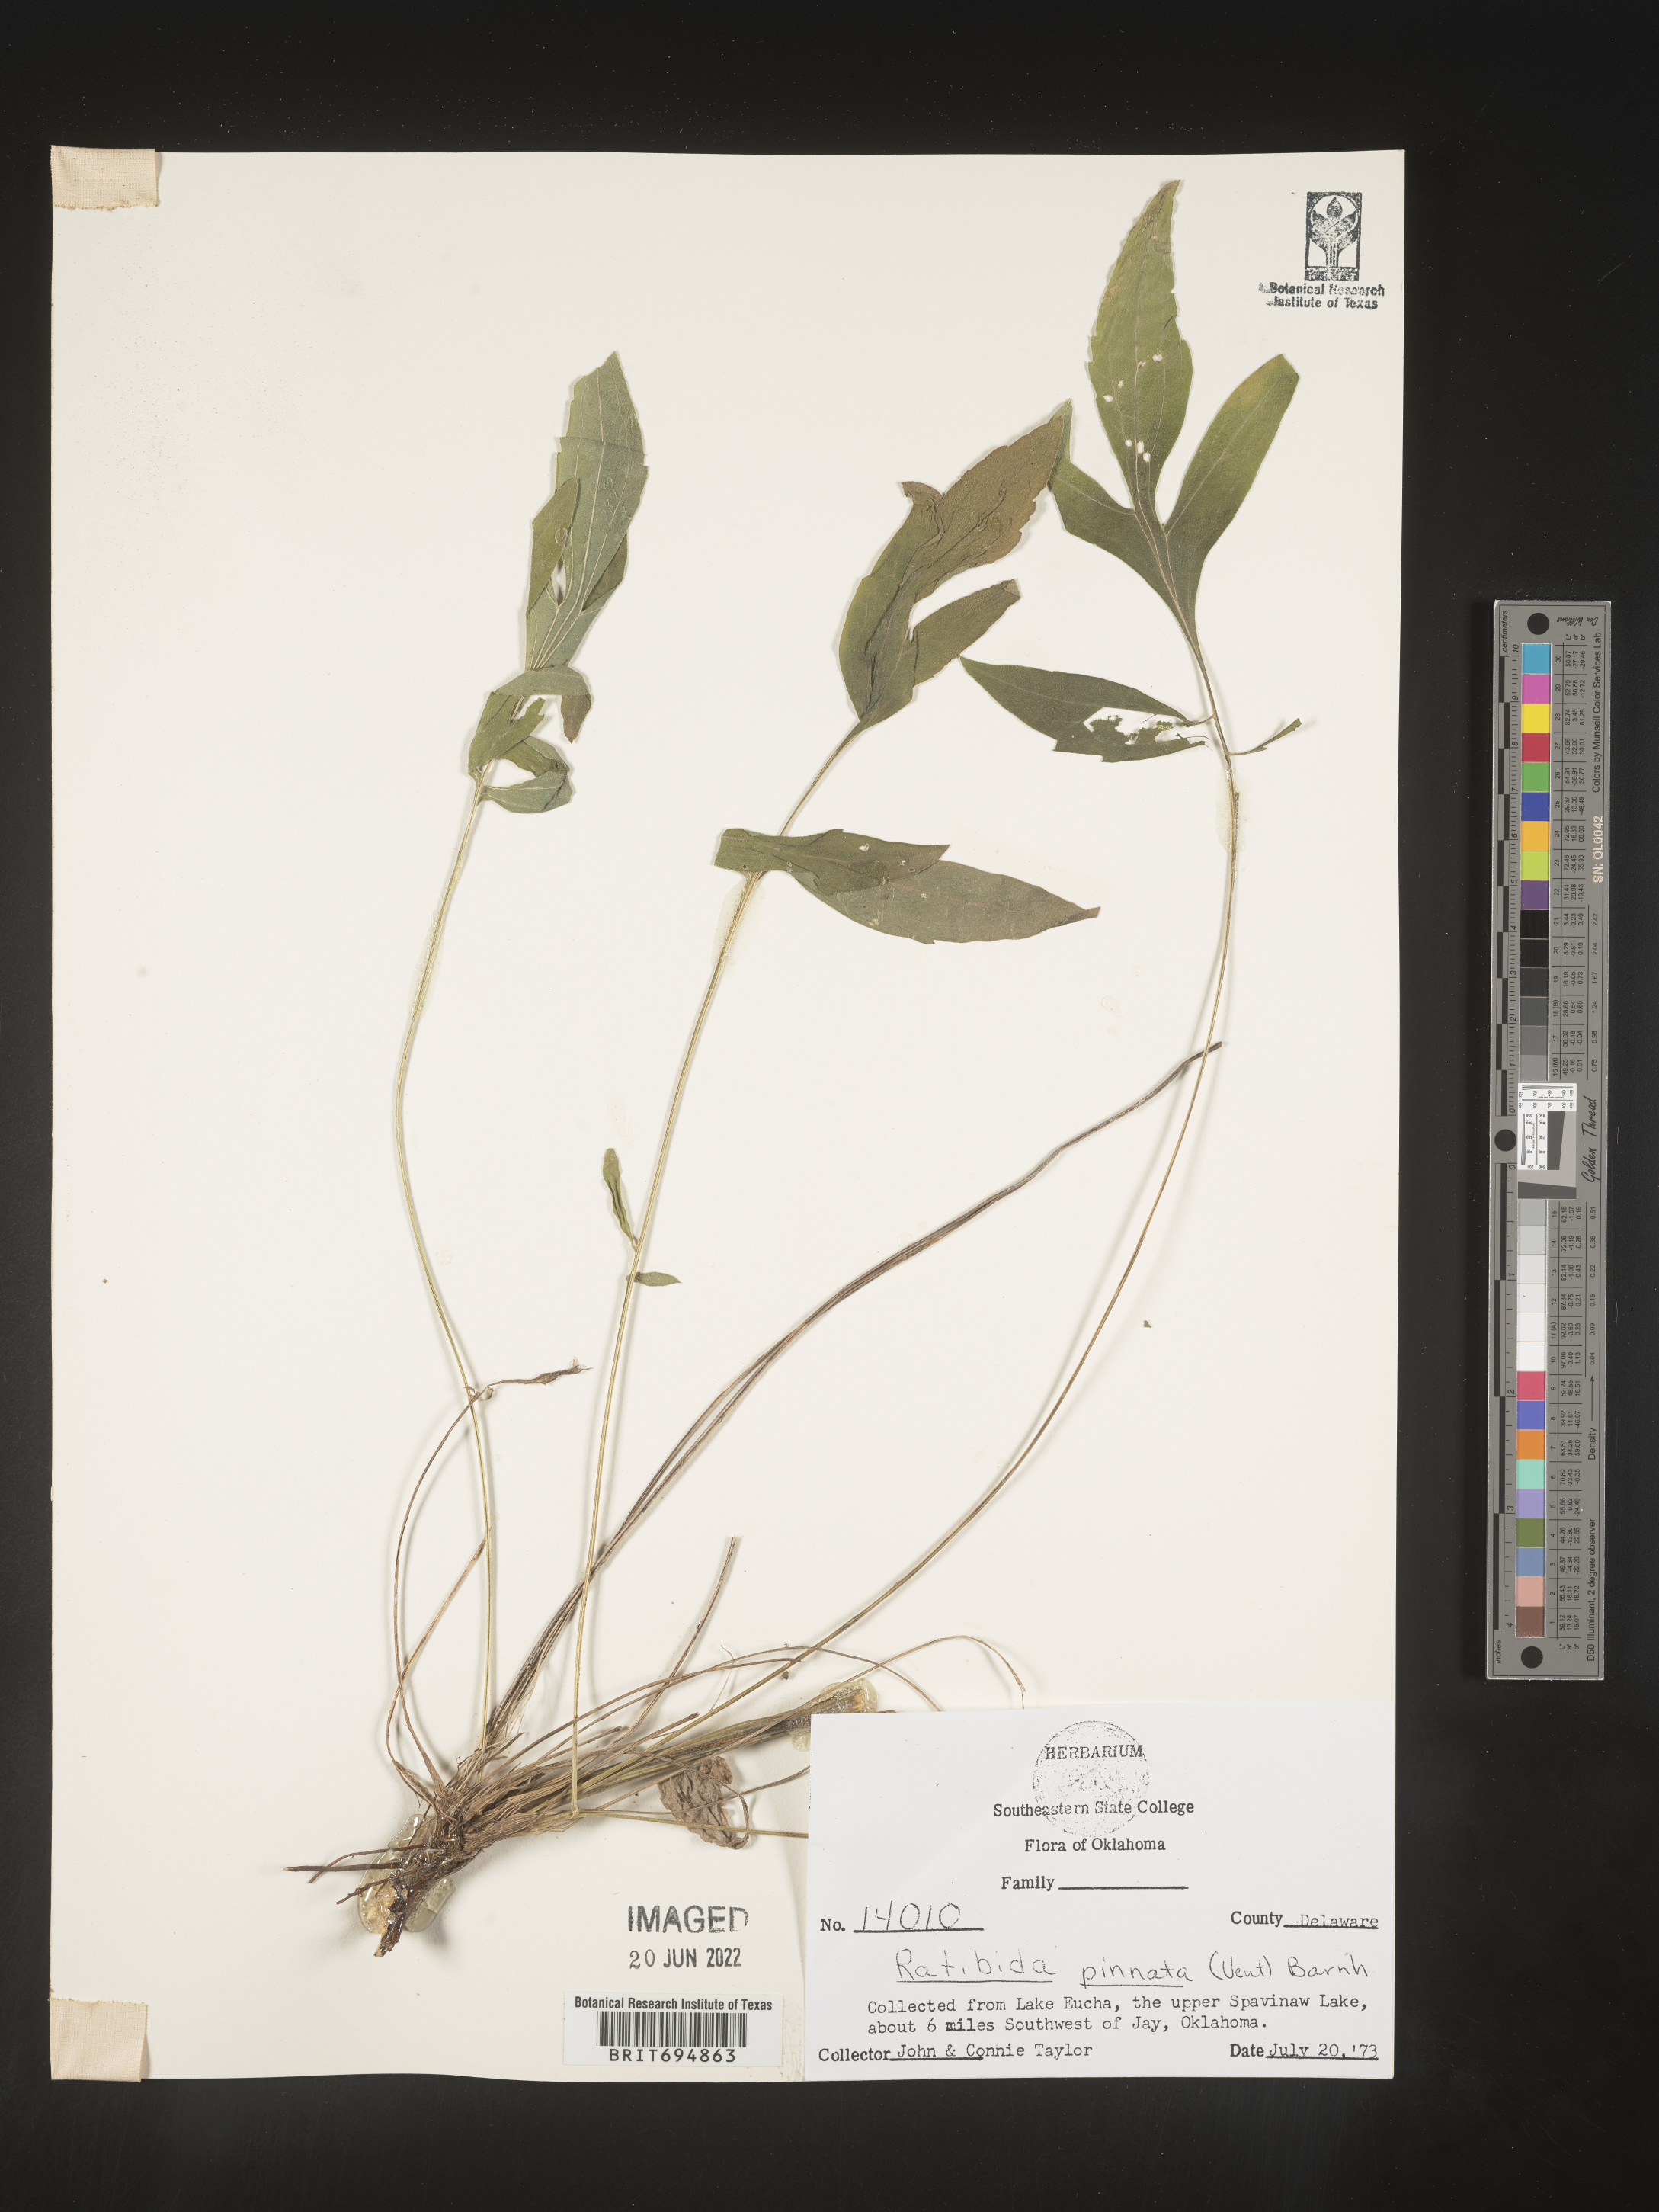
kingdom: Plantae
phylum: Tracheophyta
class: Magnoliopsida
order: Asterales
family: Asteraceae
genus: Ratibida
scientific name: Ratibida pinnata
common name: Drooping prairie-coneflower
